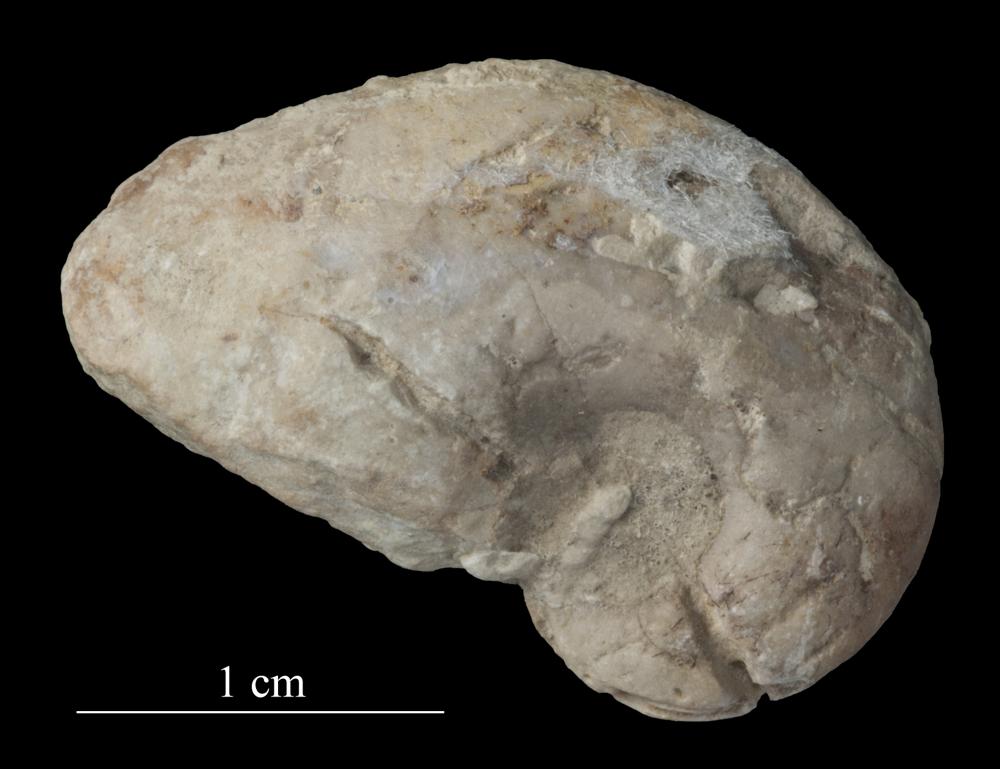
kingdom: Animalia
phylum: Mollusca
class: Gastropoda
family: Bellerophontidae
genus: Bellerophon
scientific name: Bellerophon
